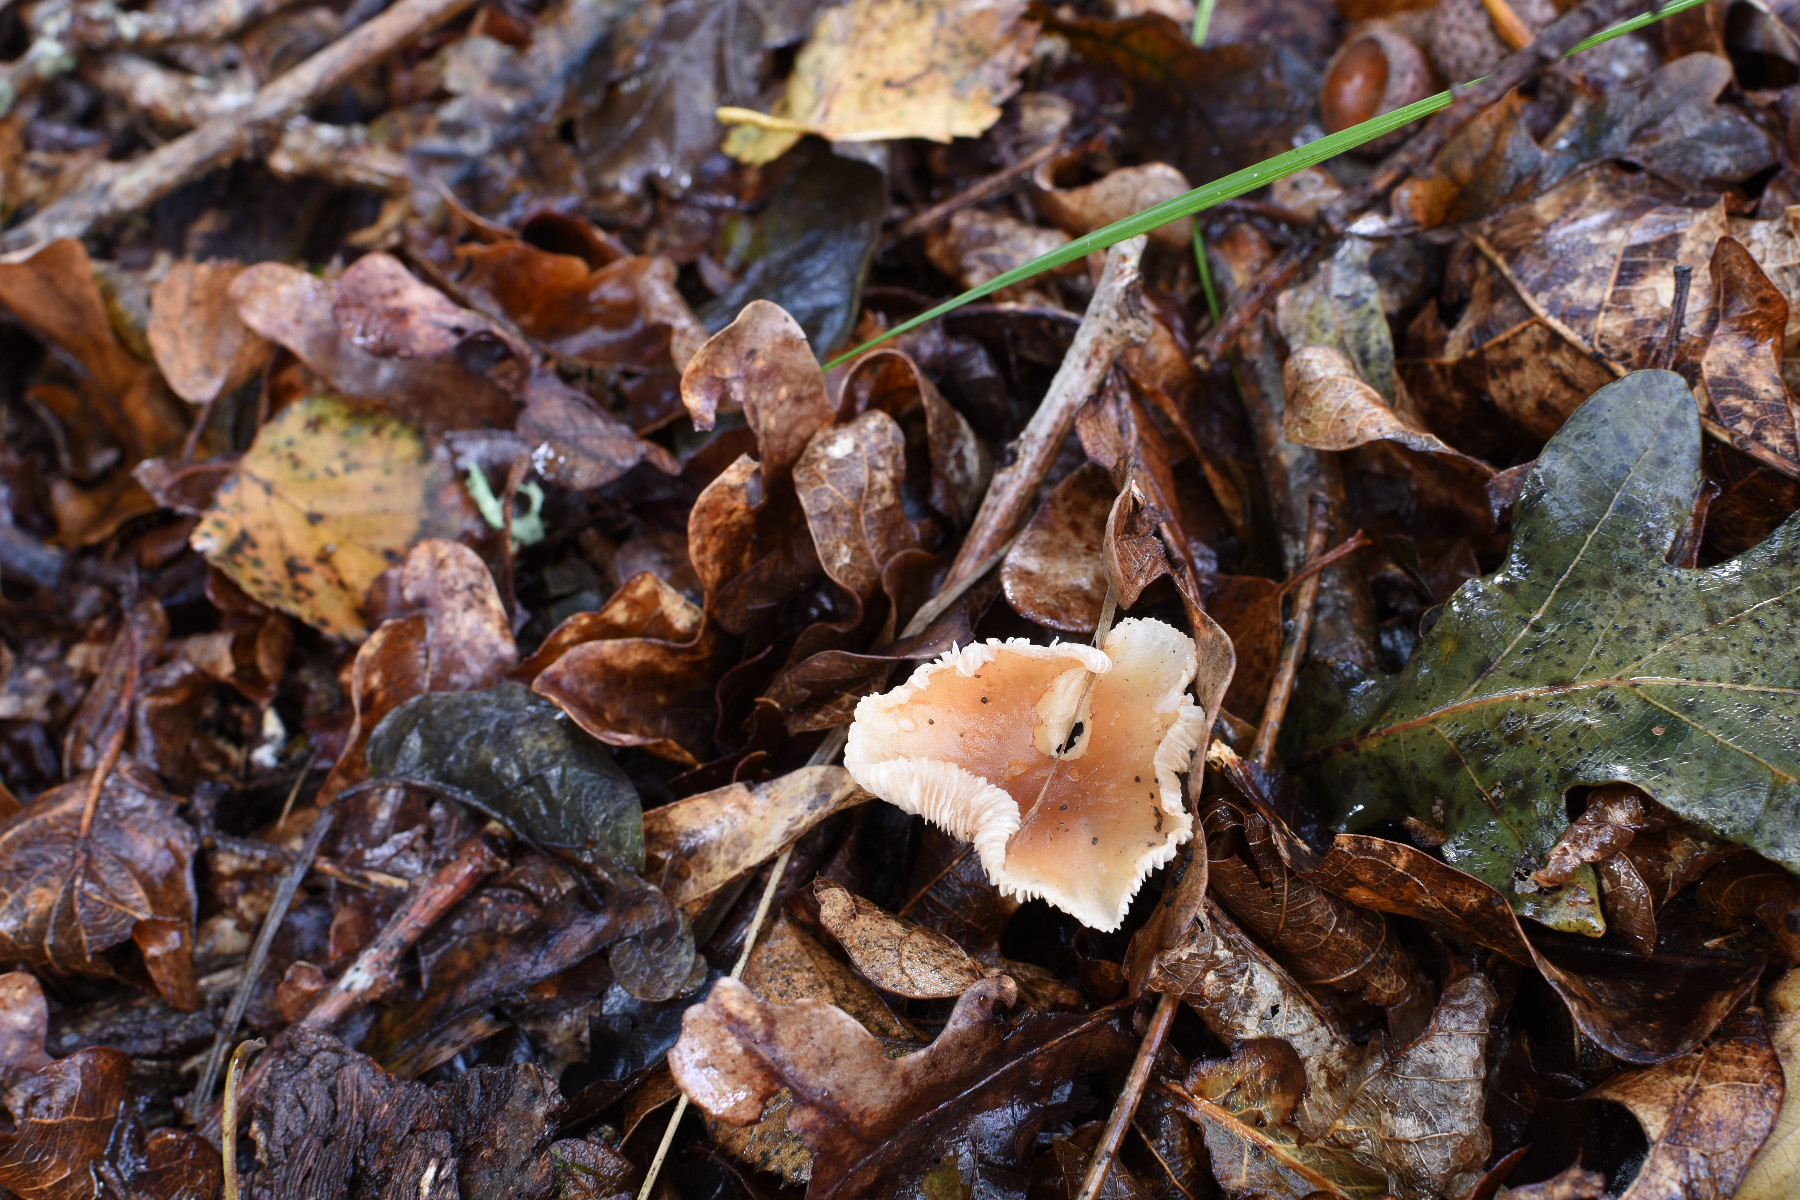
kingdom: Fungi
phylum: Basidiomycota
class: Agaricomycetes
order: Agaricales
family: Omphalotaceae
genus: Gymnopus
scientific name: Gymnopus dryophilus
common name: løv-fladhat
